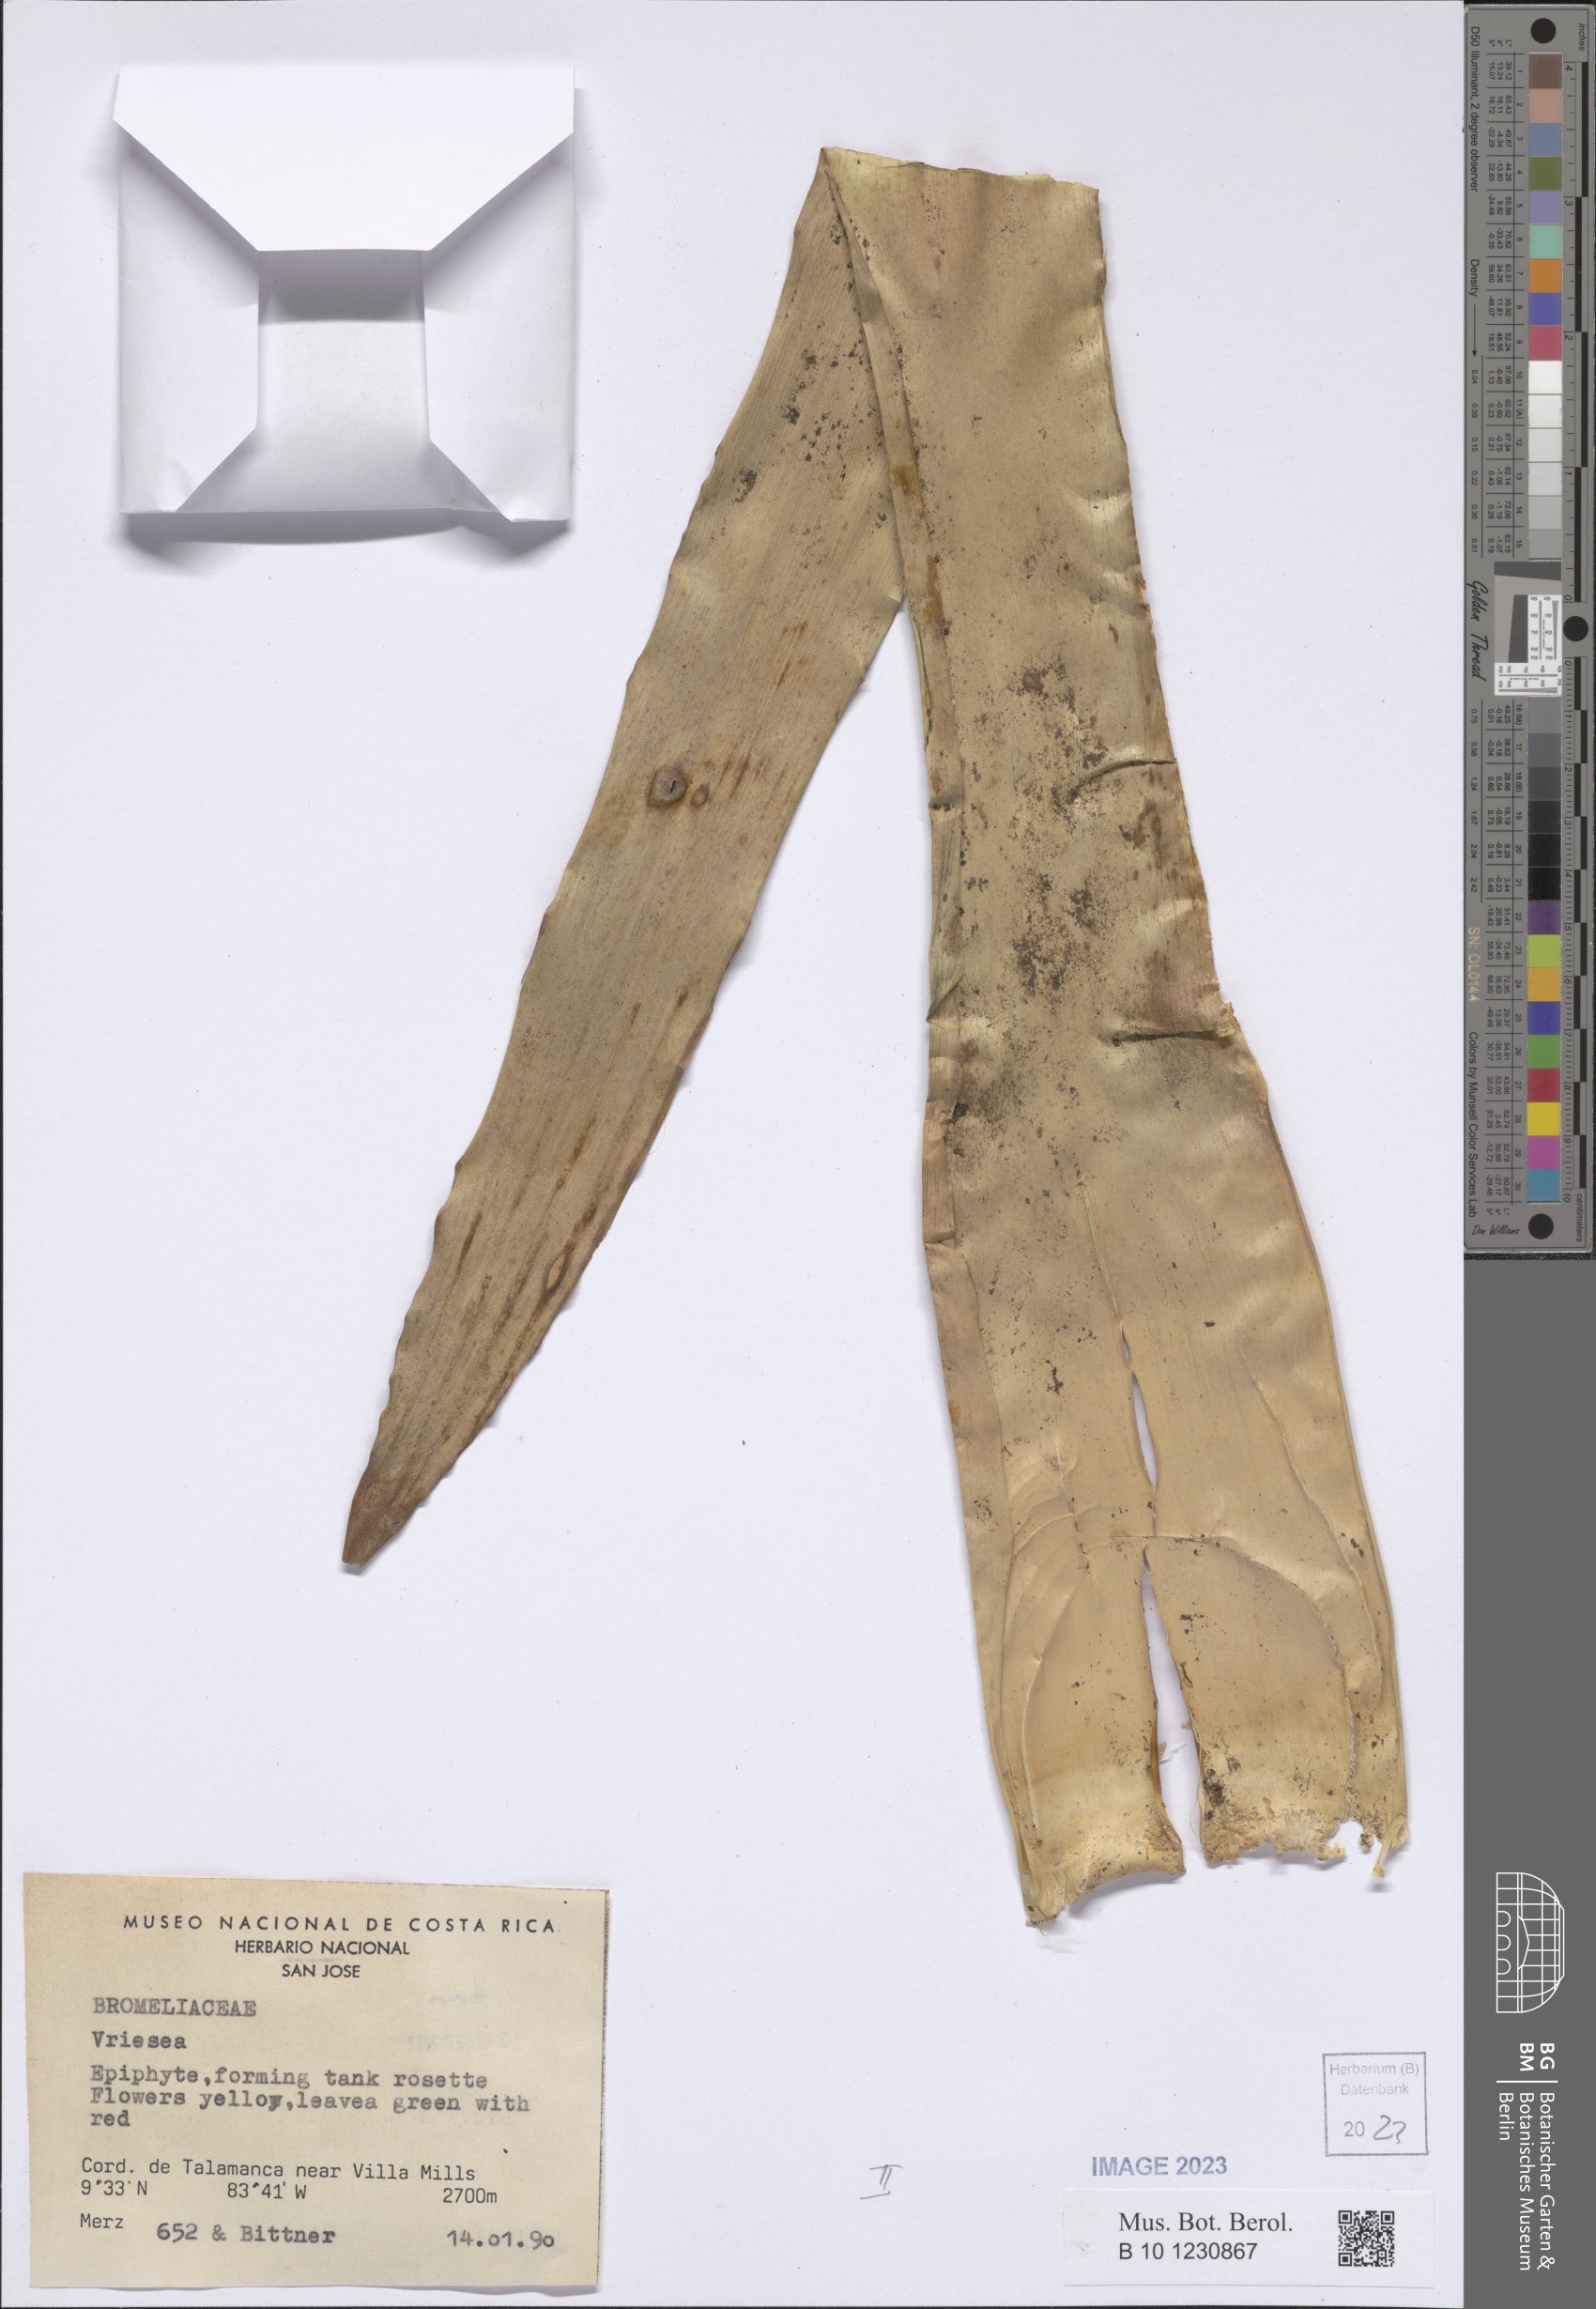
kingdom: Plantae
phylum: Tracheophyta
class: Liliopsida
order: Poales
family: Bromeliaceae
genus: Vriesea
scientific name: Vriesea
